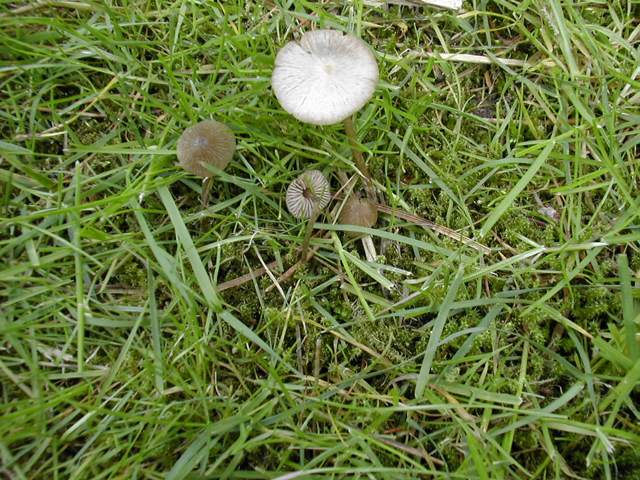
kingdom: Fungi
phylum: Basidiomycota
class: Agaricomycetes
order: Agaricales
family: Entolomataceae
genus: Entoloma
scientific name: Entoloma cuneatum
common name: dunstokket rødblad
